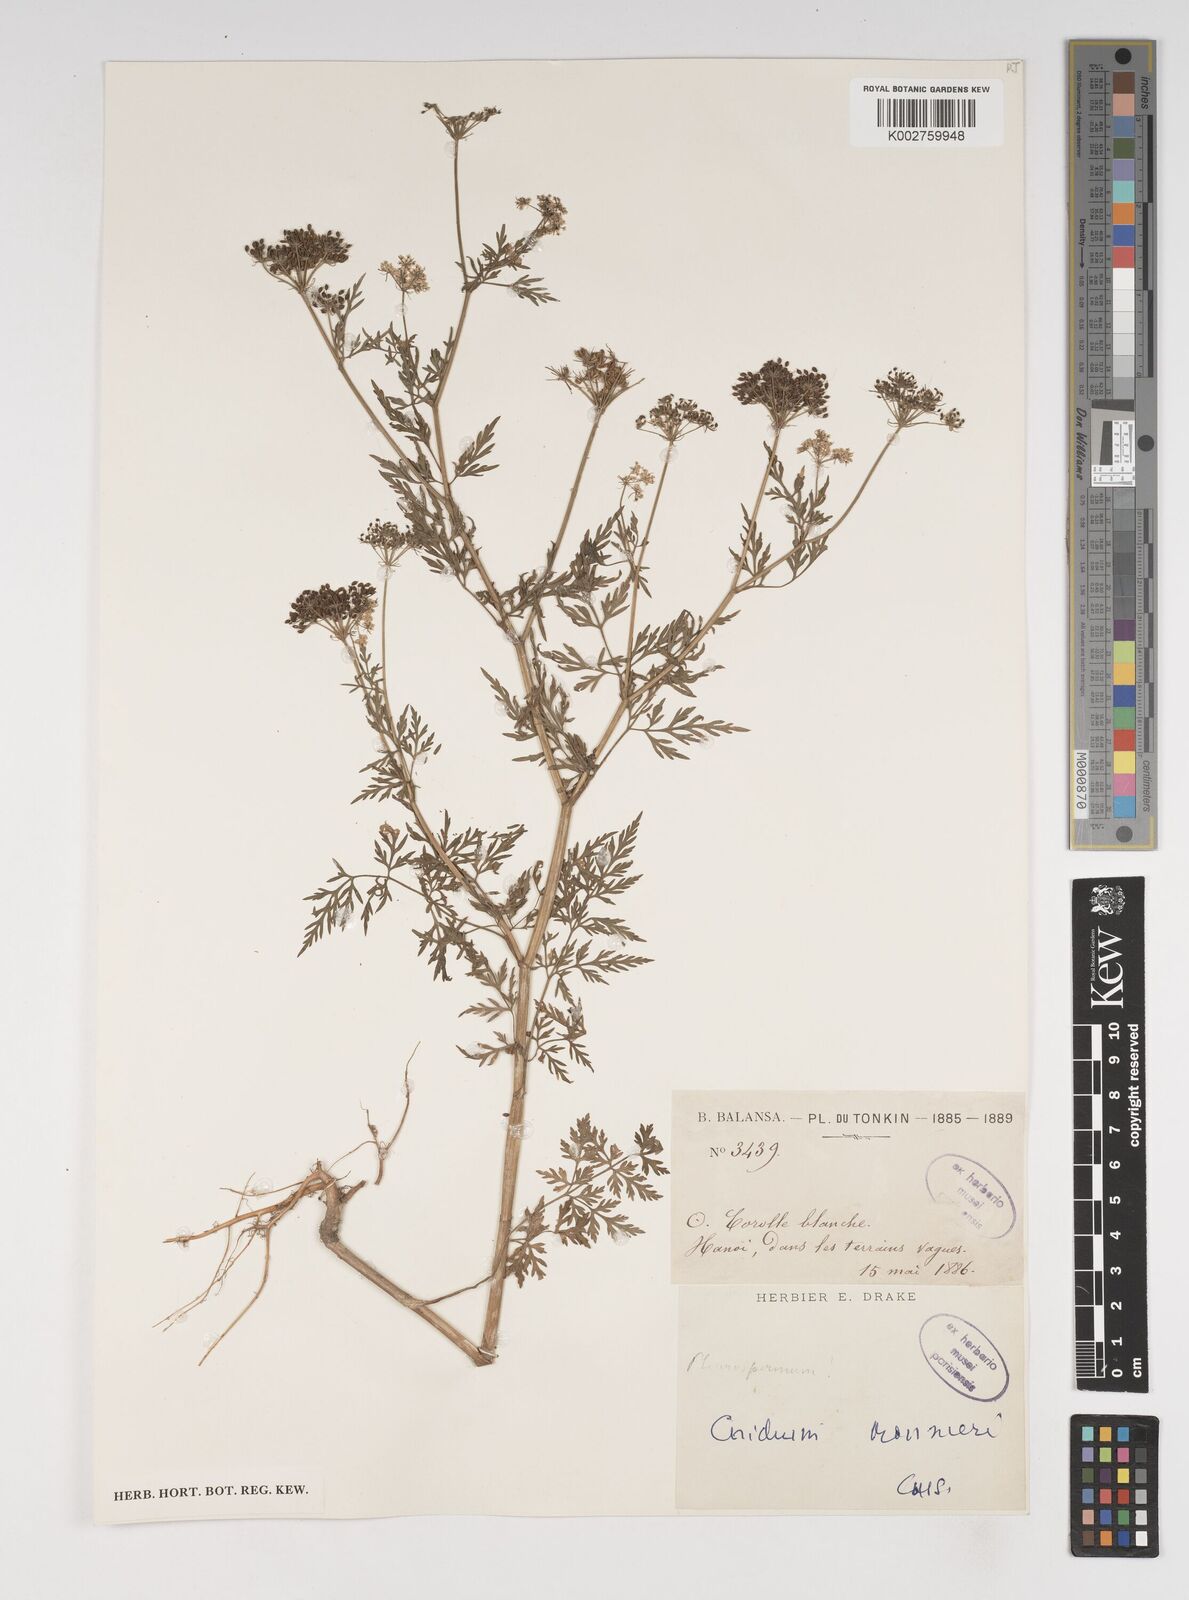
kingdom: Plantae
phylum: Tracheophyta
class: Magnoliopsida
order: Apiales
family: Apiaceae
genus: Cnidium
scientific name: Cnidium monnieri
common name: Monnier's snowparsley
